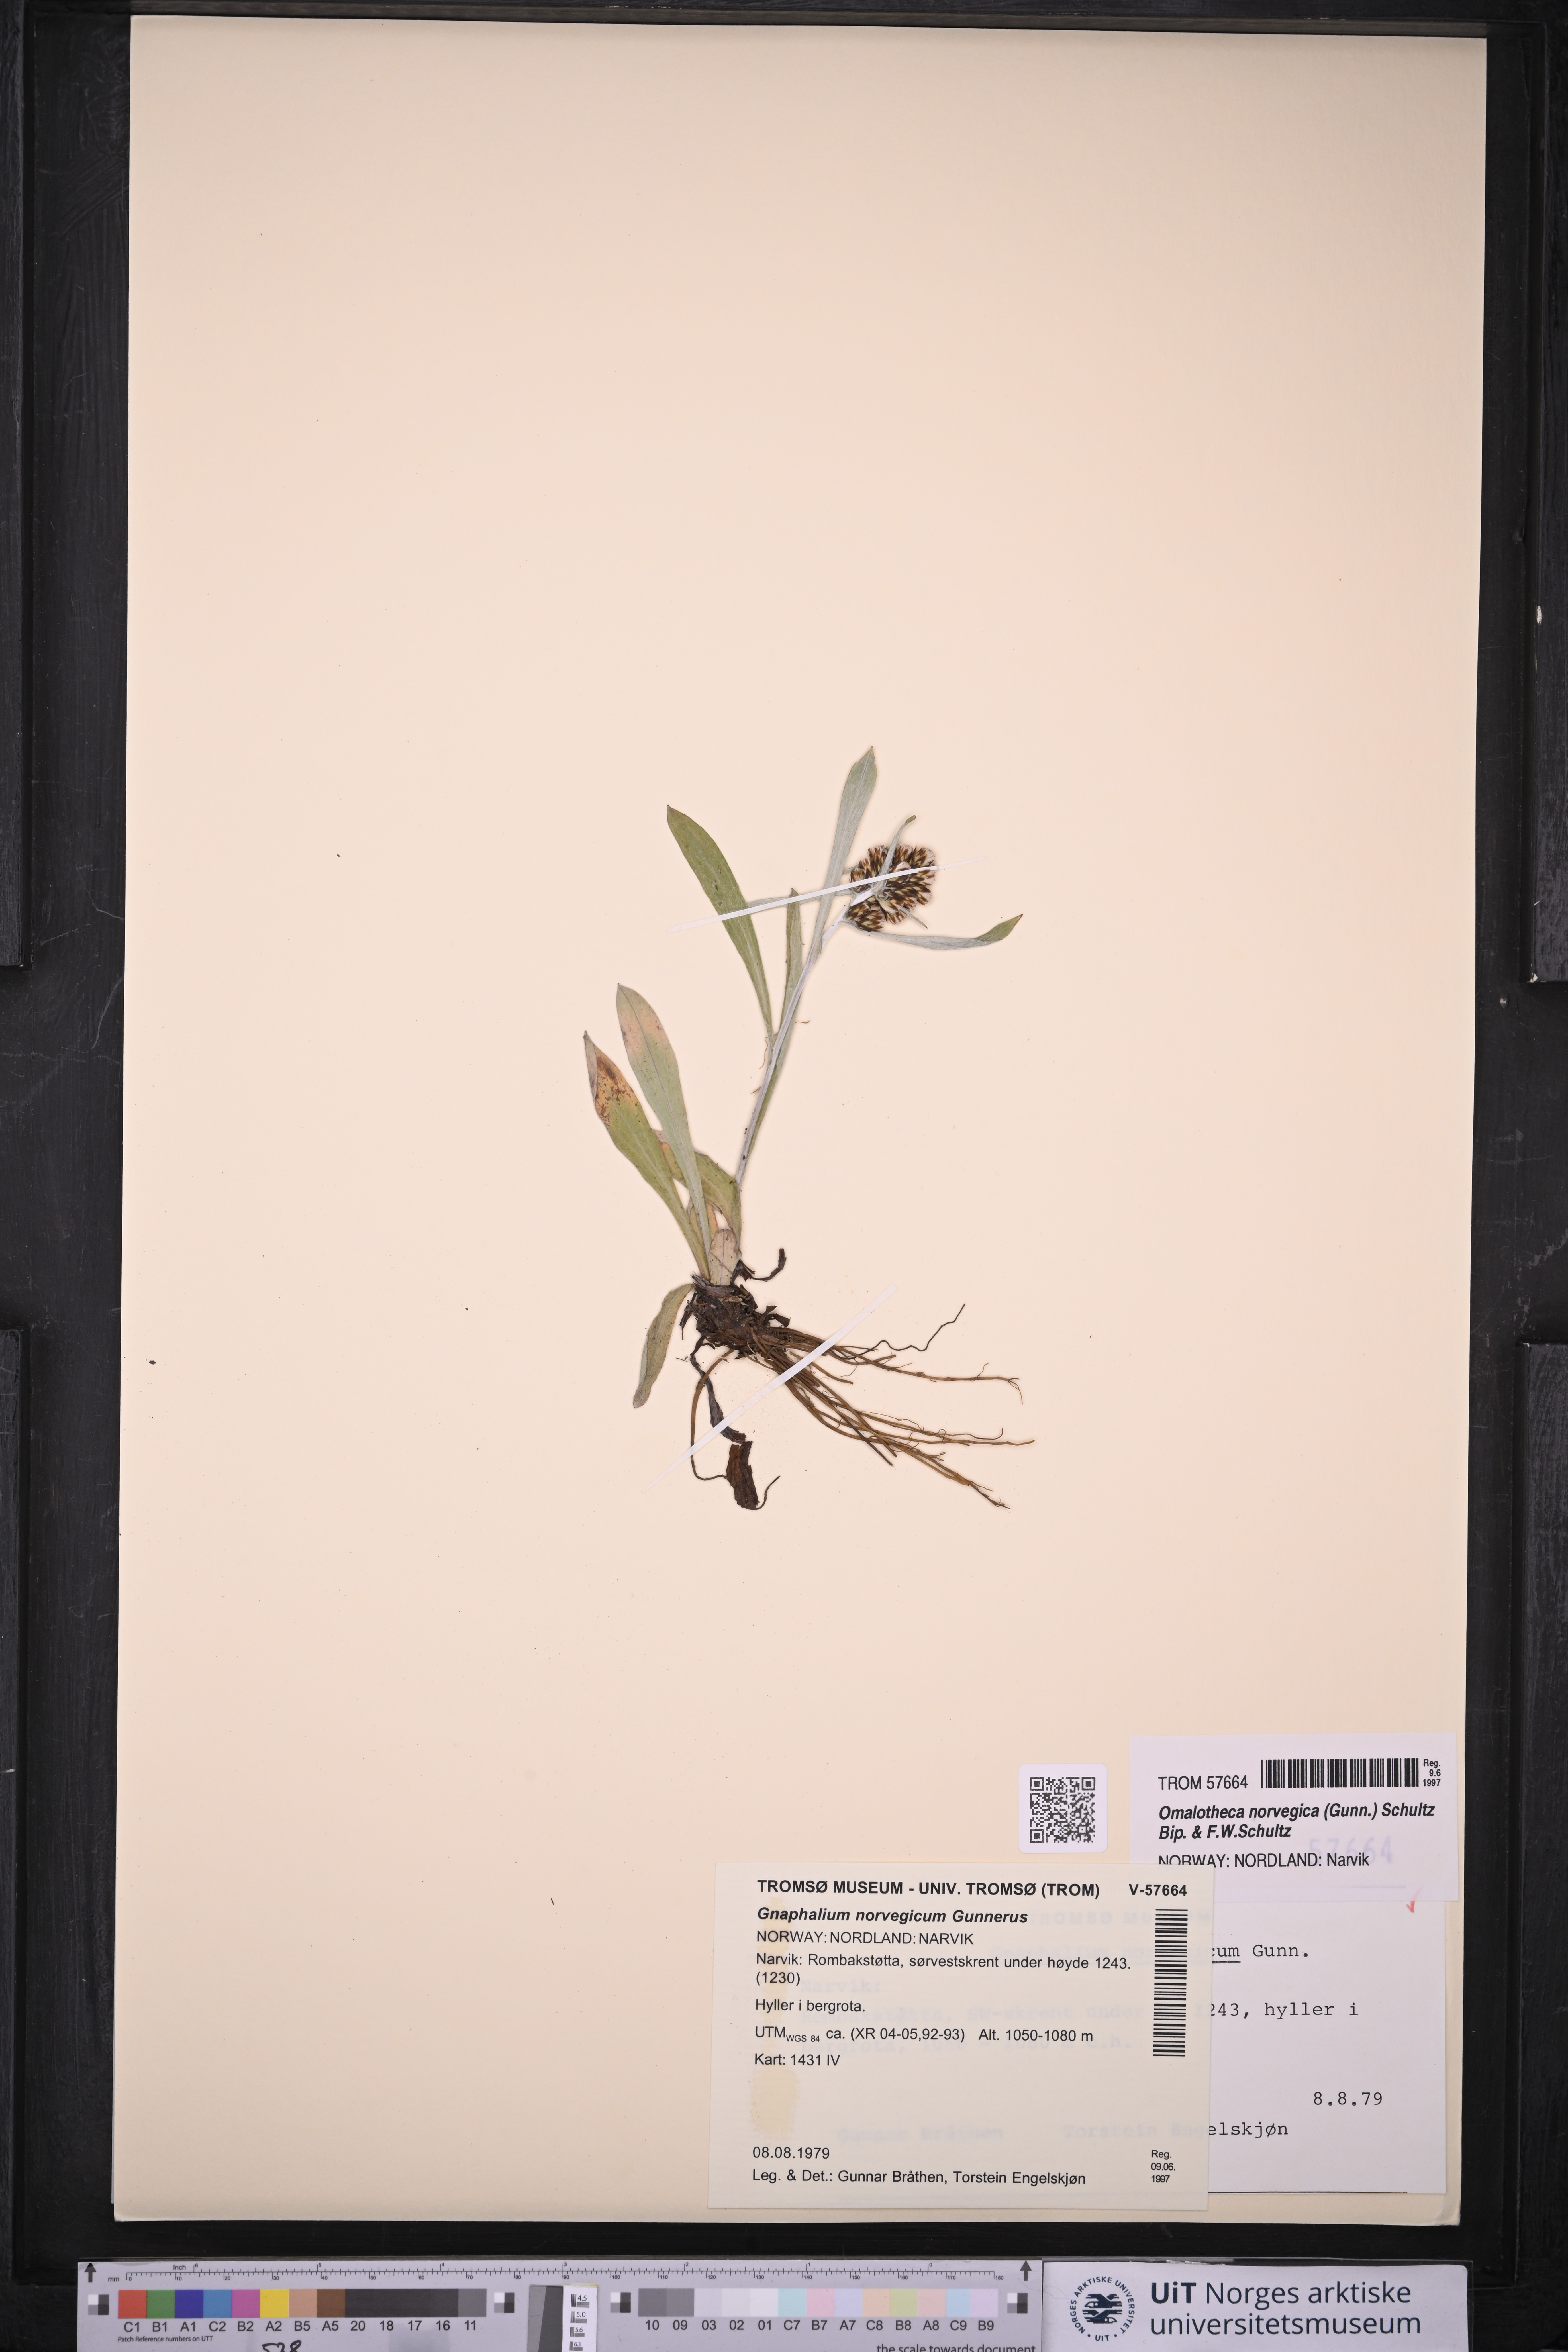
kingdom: Plantae
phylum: Tracheophyta
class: Magnoliopsida
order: Asterales
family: Asteraceae
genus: Omalotheca
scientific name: Omalotheca norvegica
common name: Norwegian arctic-cudweed
